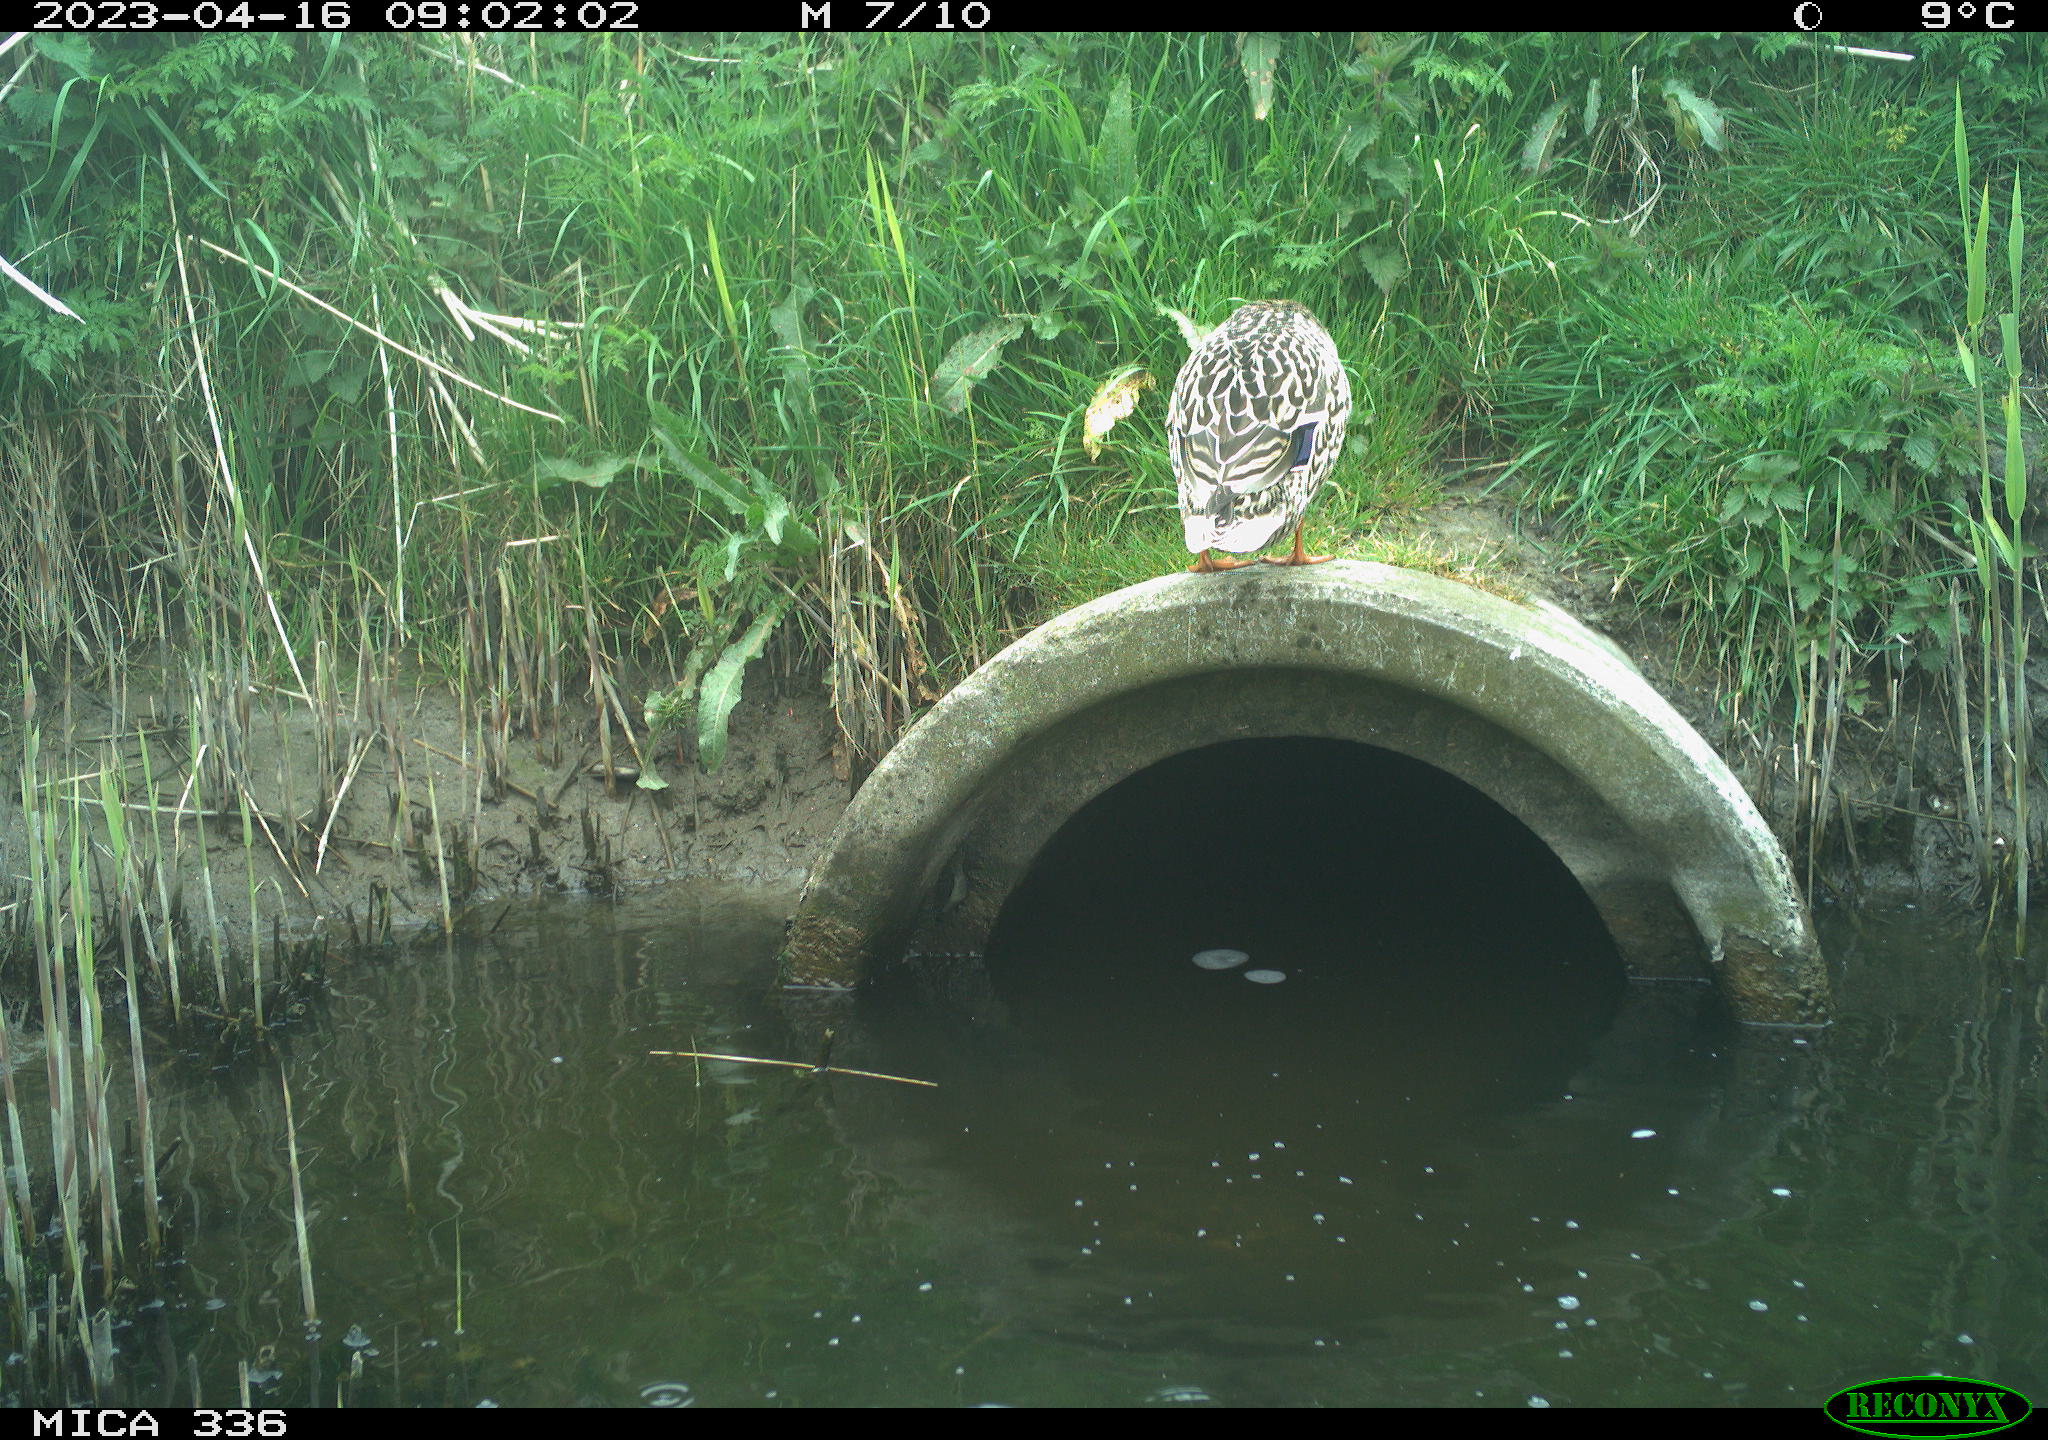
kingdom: Animalia
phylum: Chordata
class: Aves
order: Anseriformes
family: Anatidae
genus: Anas
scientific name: Anas
